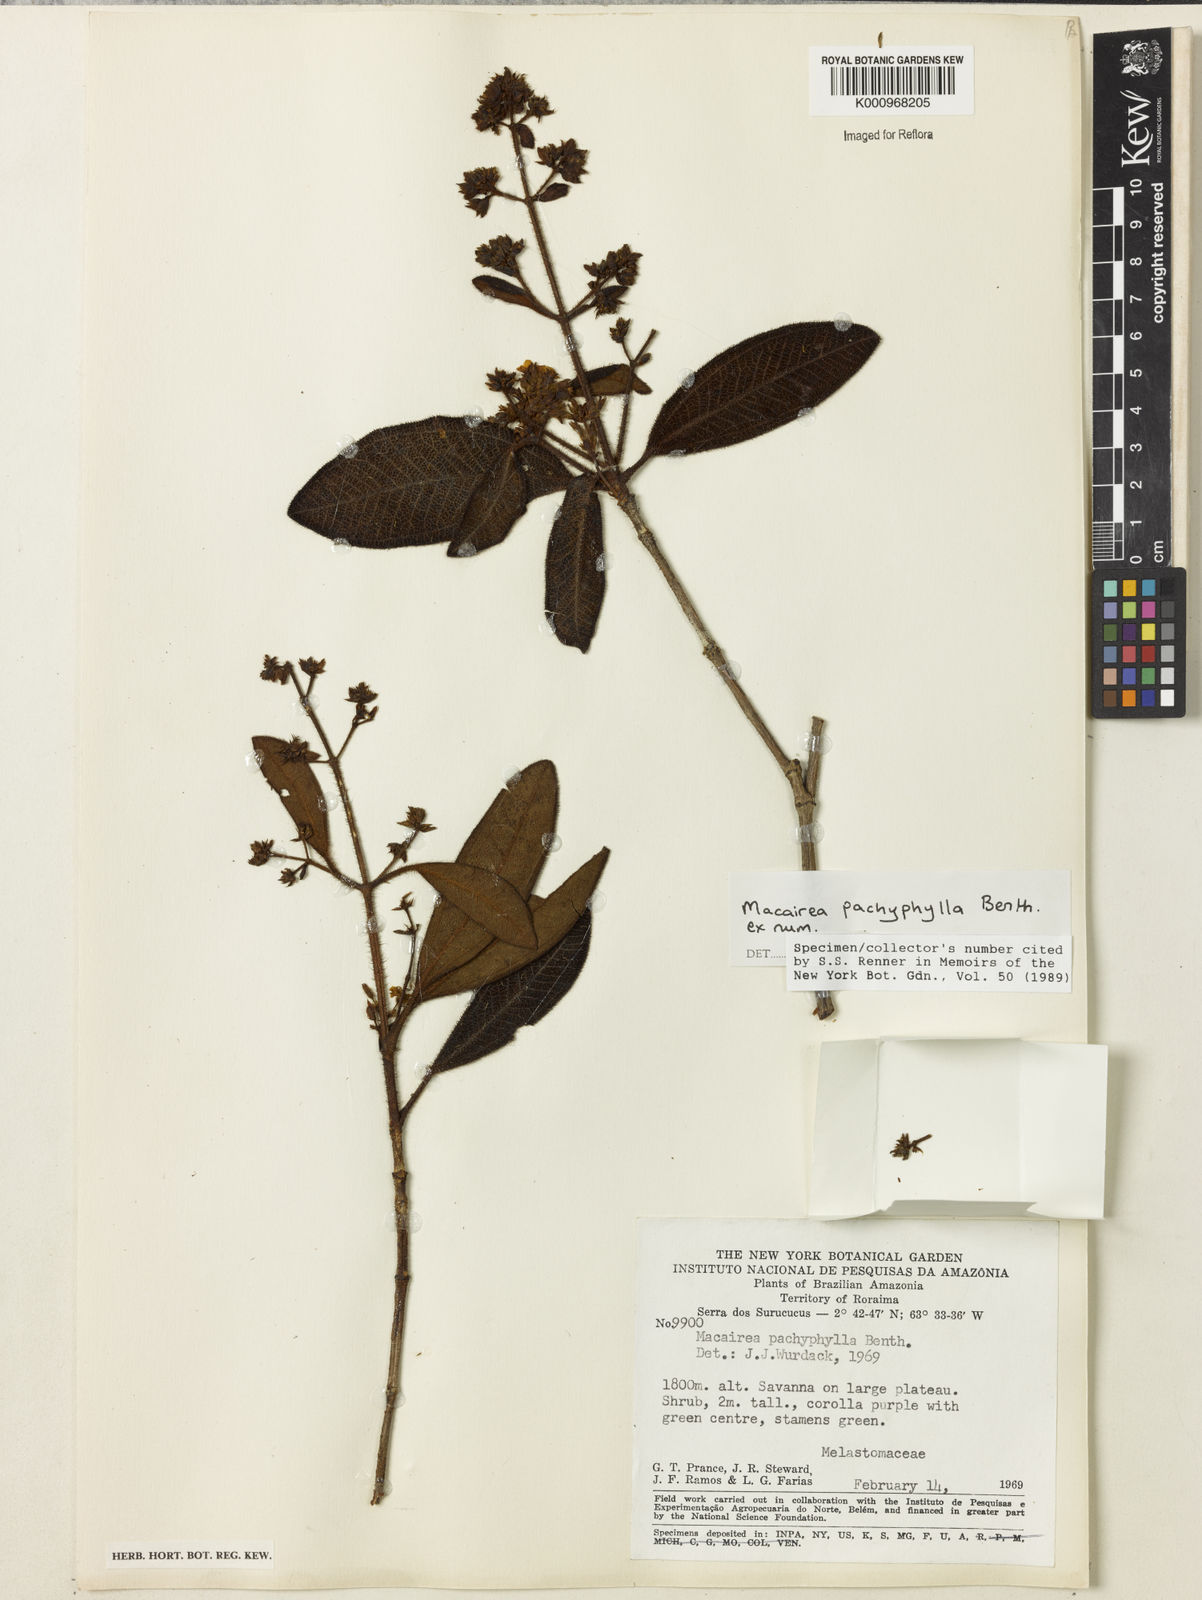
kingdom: Plantae
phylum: Tracheophyta
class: Magnoliopsida
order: Myrtales
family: Melastomataceae
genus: Macairea
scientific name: Macairea pachyphylla
